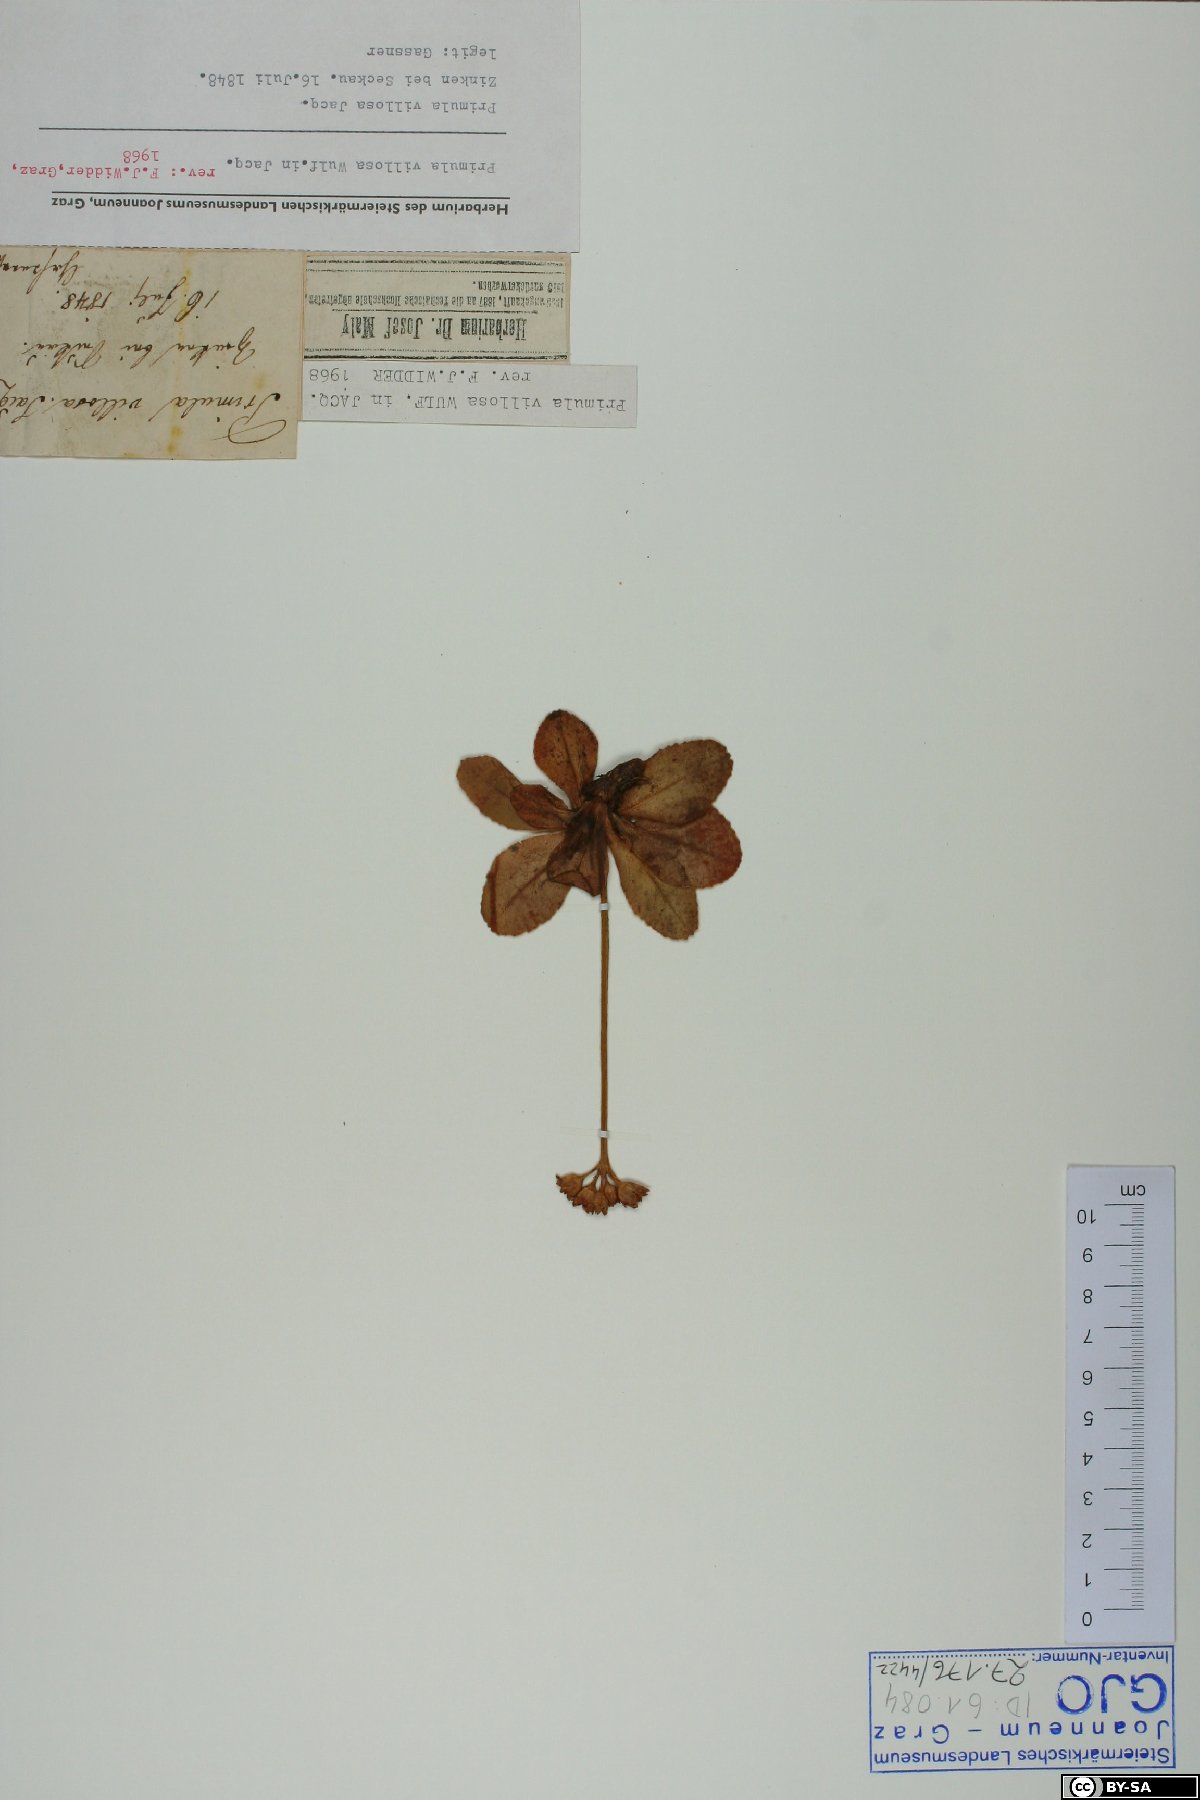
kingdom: Plantae
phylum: Tracheophyta
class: Magnoliopsida
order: Ericales
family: Primulaceae
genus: Primula
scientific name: Primula villosa
